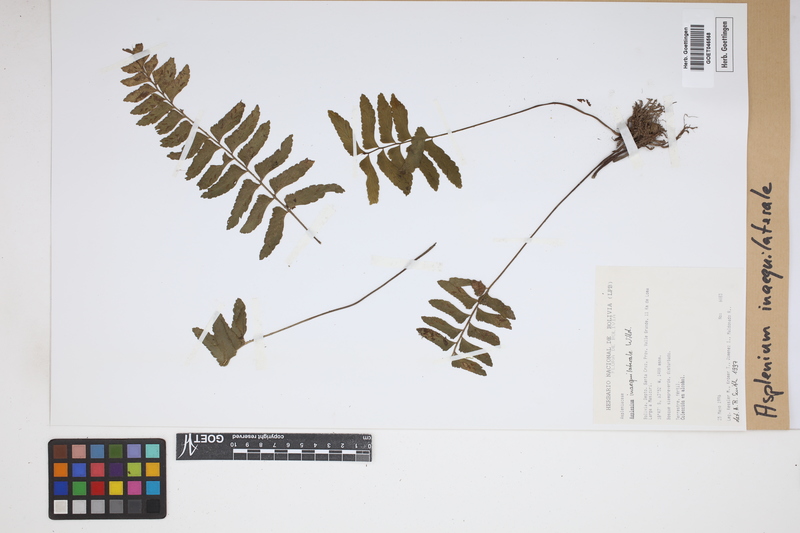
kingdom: Plantae
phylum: Tracheophyta
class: Polypodiopsida
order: Polypodiales
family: Aspleniaceae
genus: Asplenium
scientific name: Asplenium inaequilaterale
